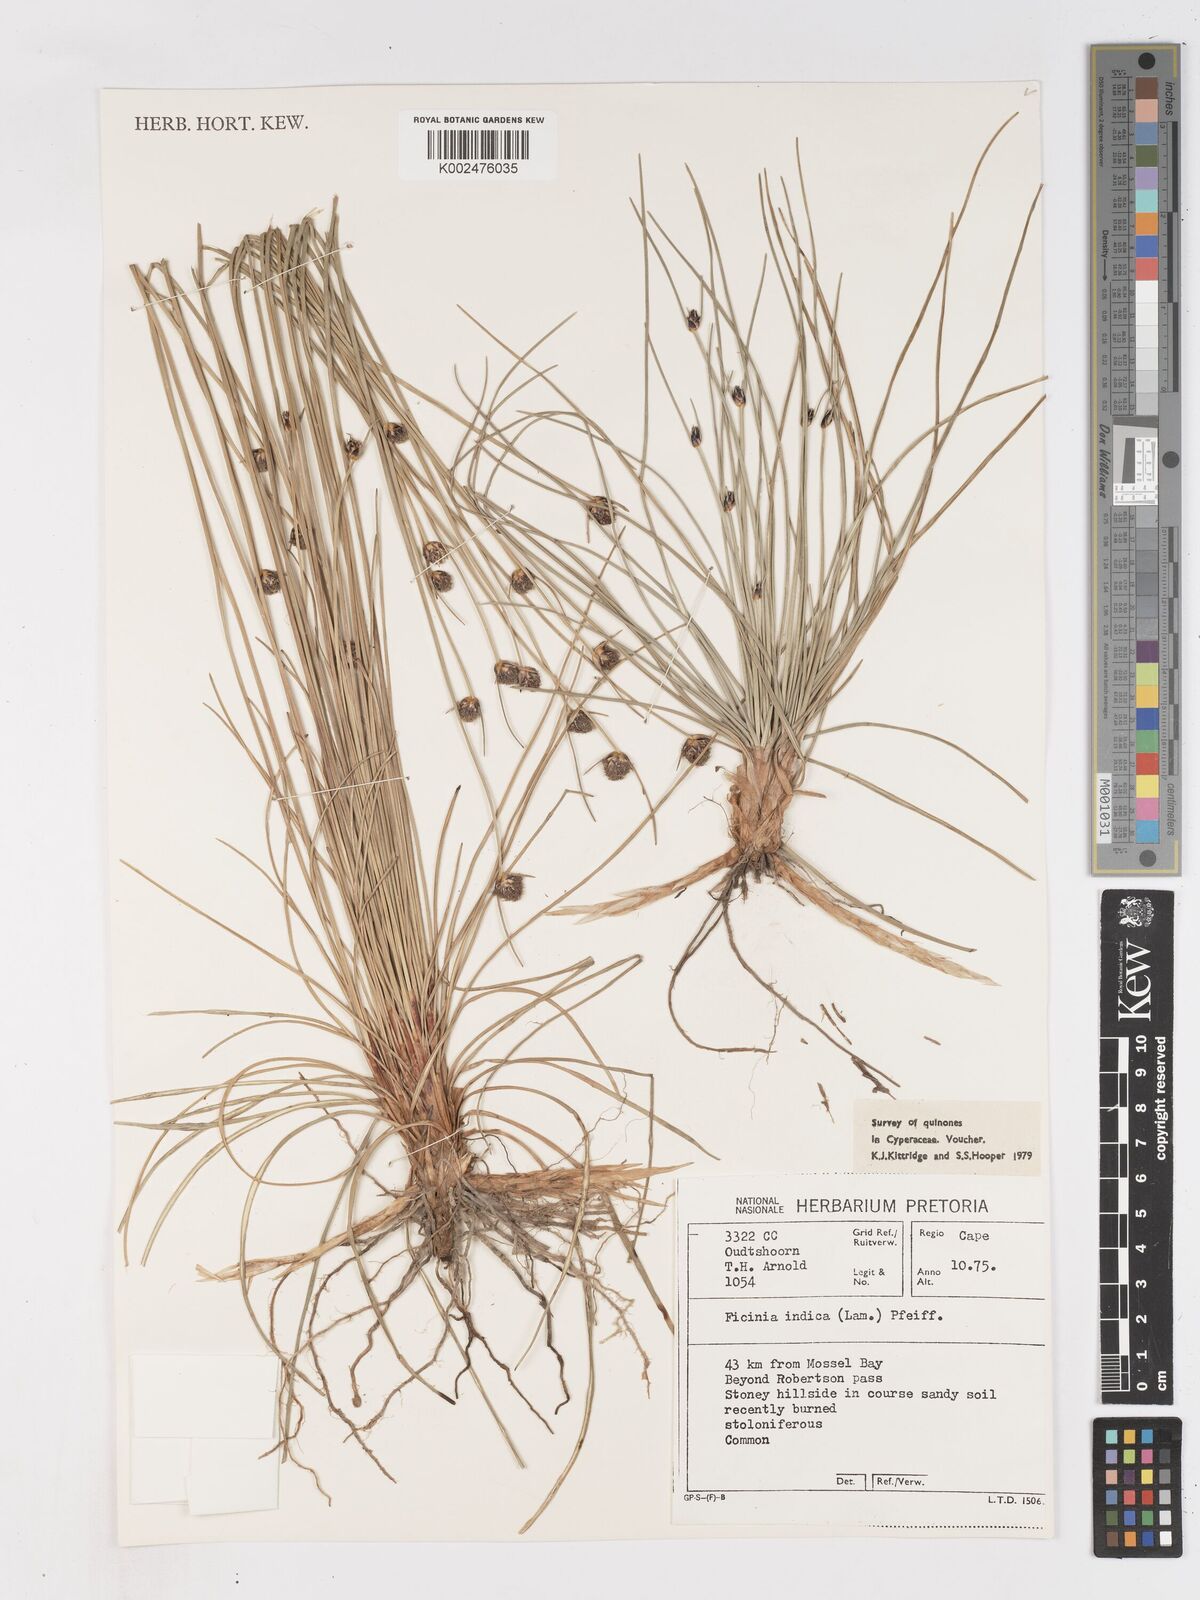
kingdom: Plantae
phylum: Tracheophyta
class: Liliopsida
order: Poales
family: Cyperaceae
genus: Ficinia
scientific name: Ficinia indica
